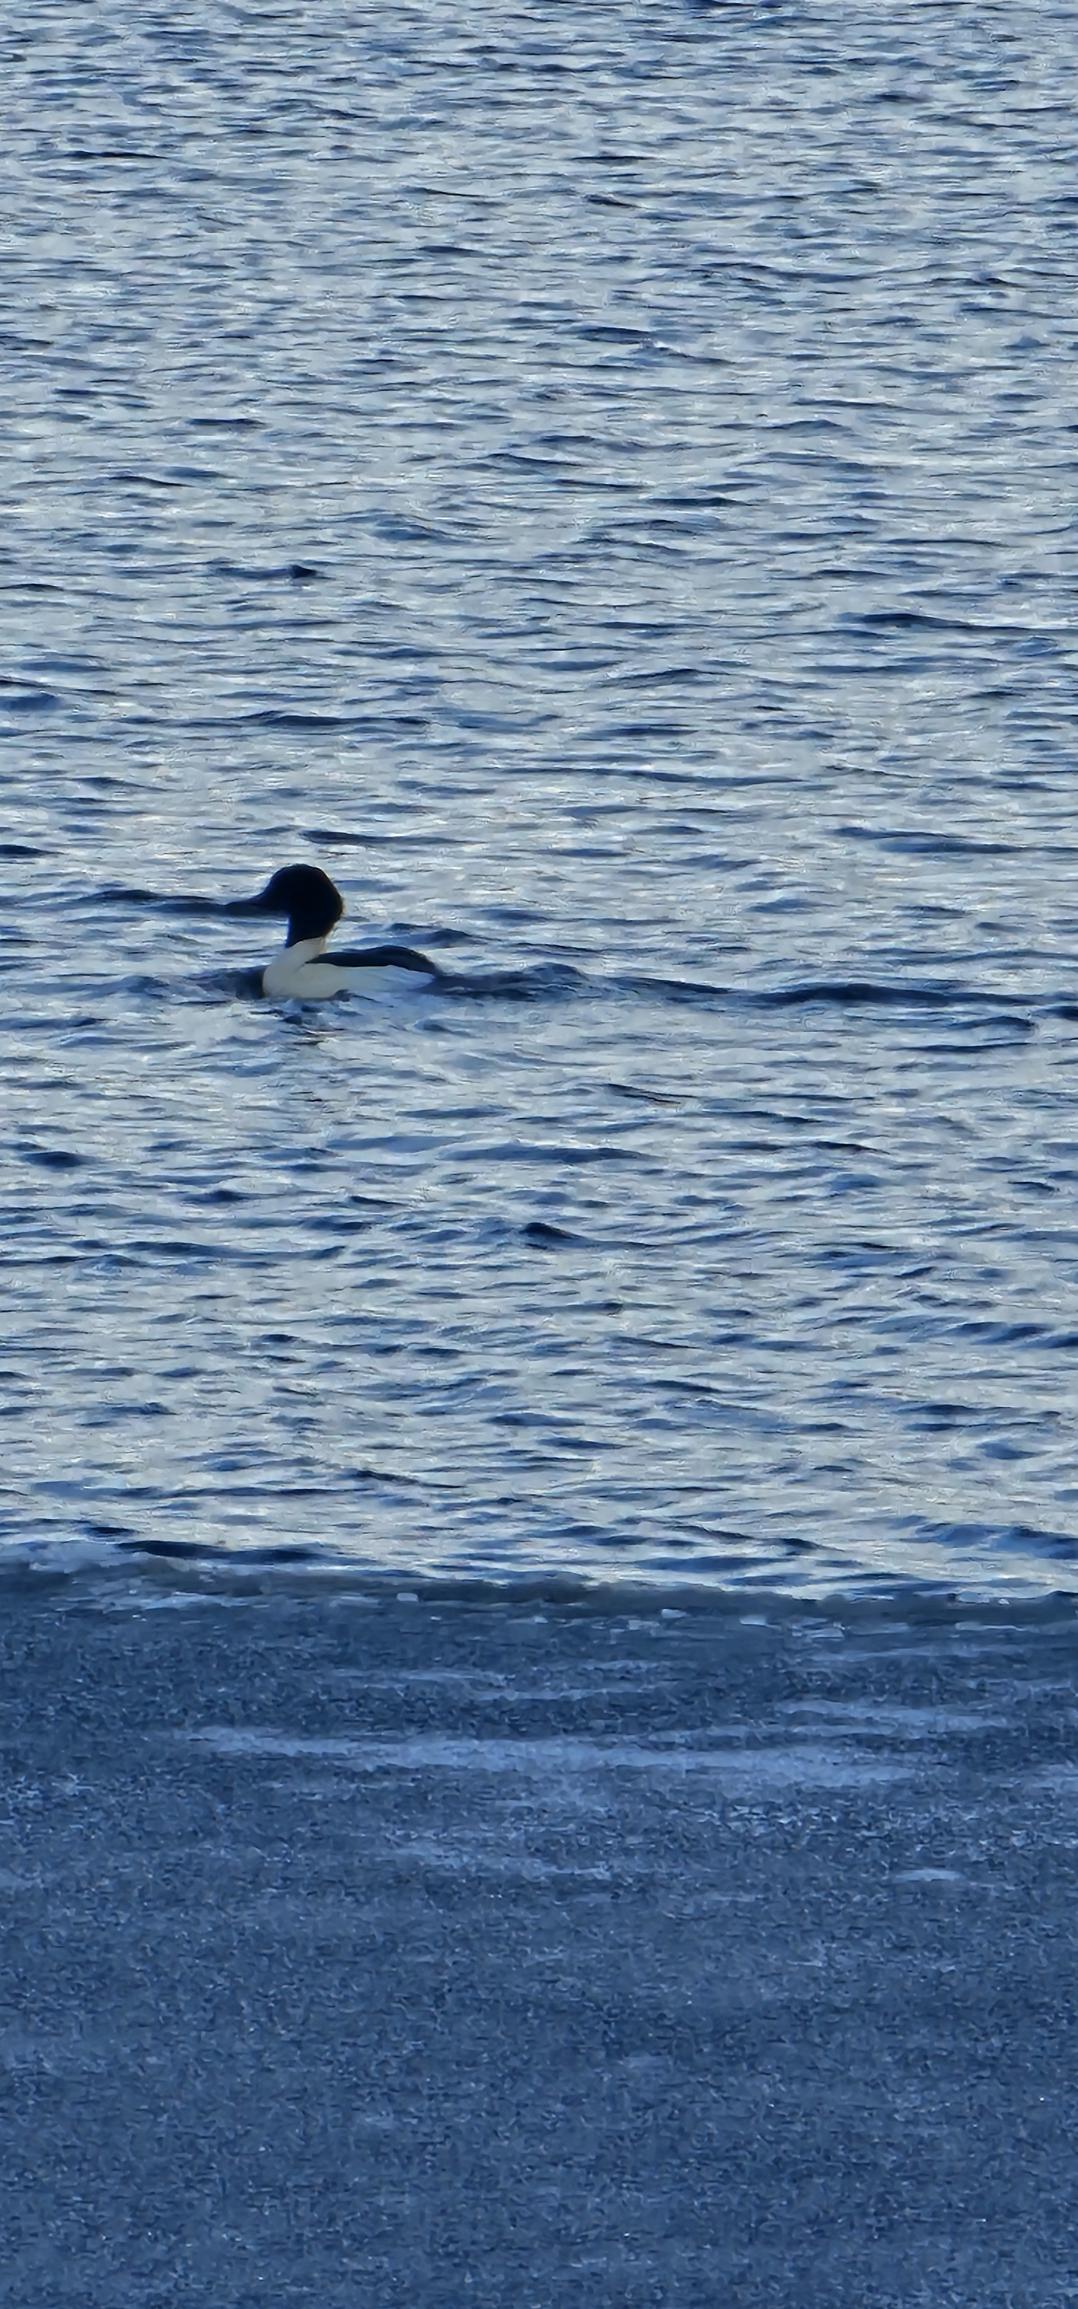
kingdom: Animalia
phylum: Chordata
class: Aves
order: Anseriformes
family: Anatidae
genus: Mergus
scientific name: Mergus merganser
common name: Stor skallesluger
